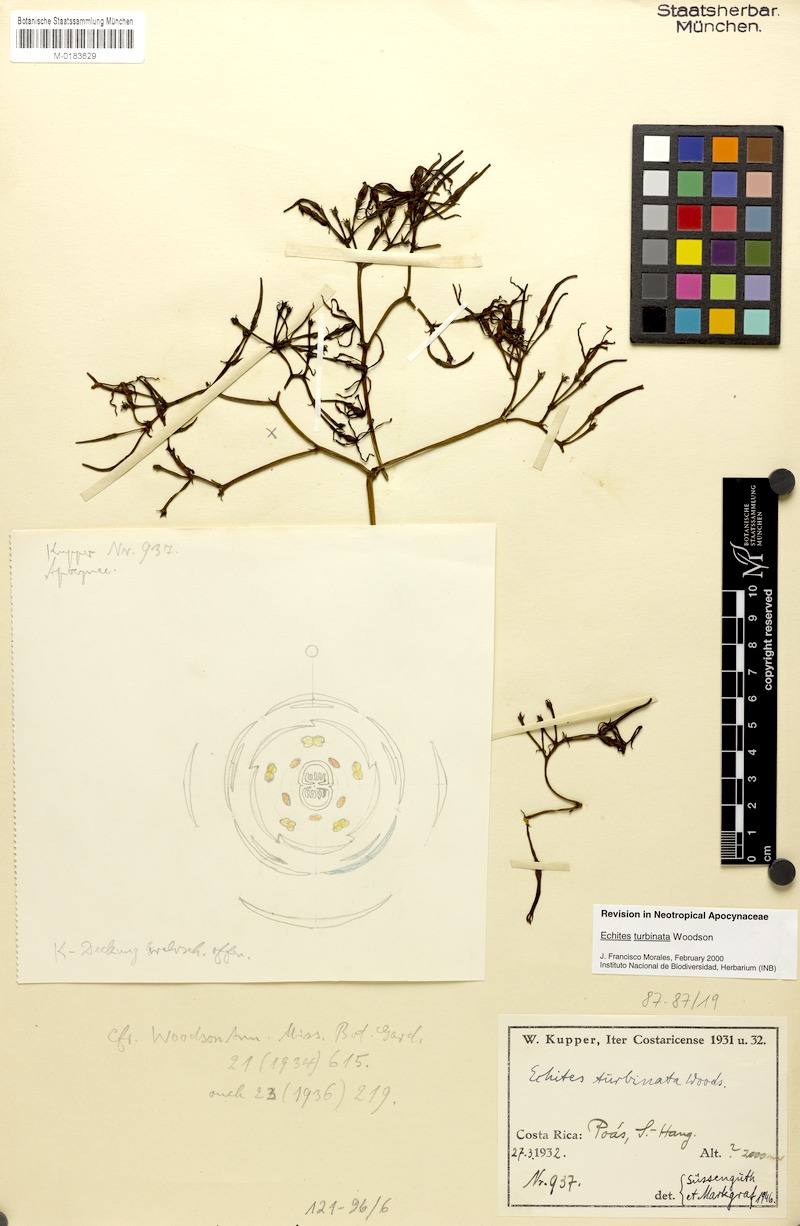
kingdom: Plantae
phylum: Tracheophyta
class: Magnoliopsida
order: Gentianales
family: Apocynaceae
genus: Echites
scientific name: Echites turbinatus
